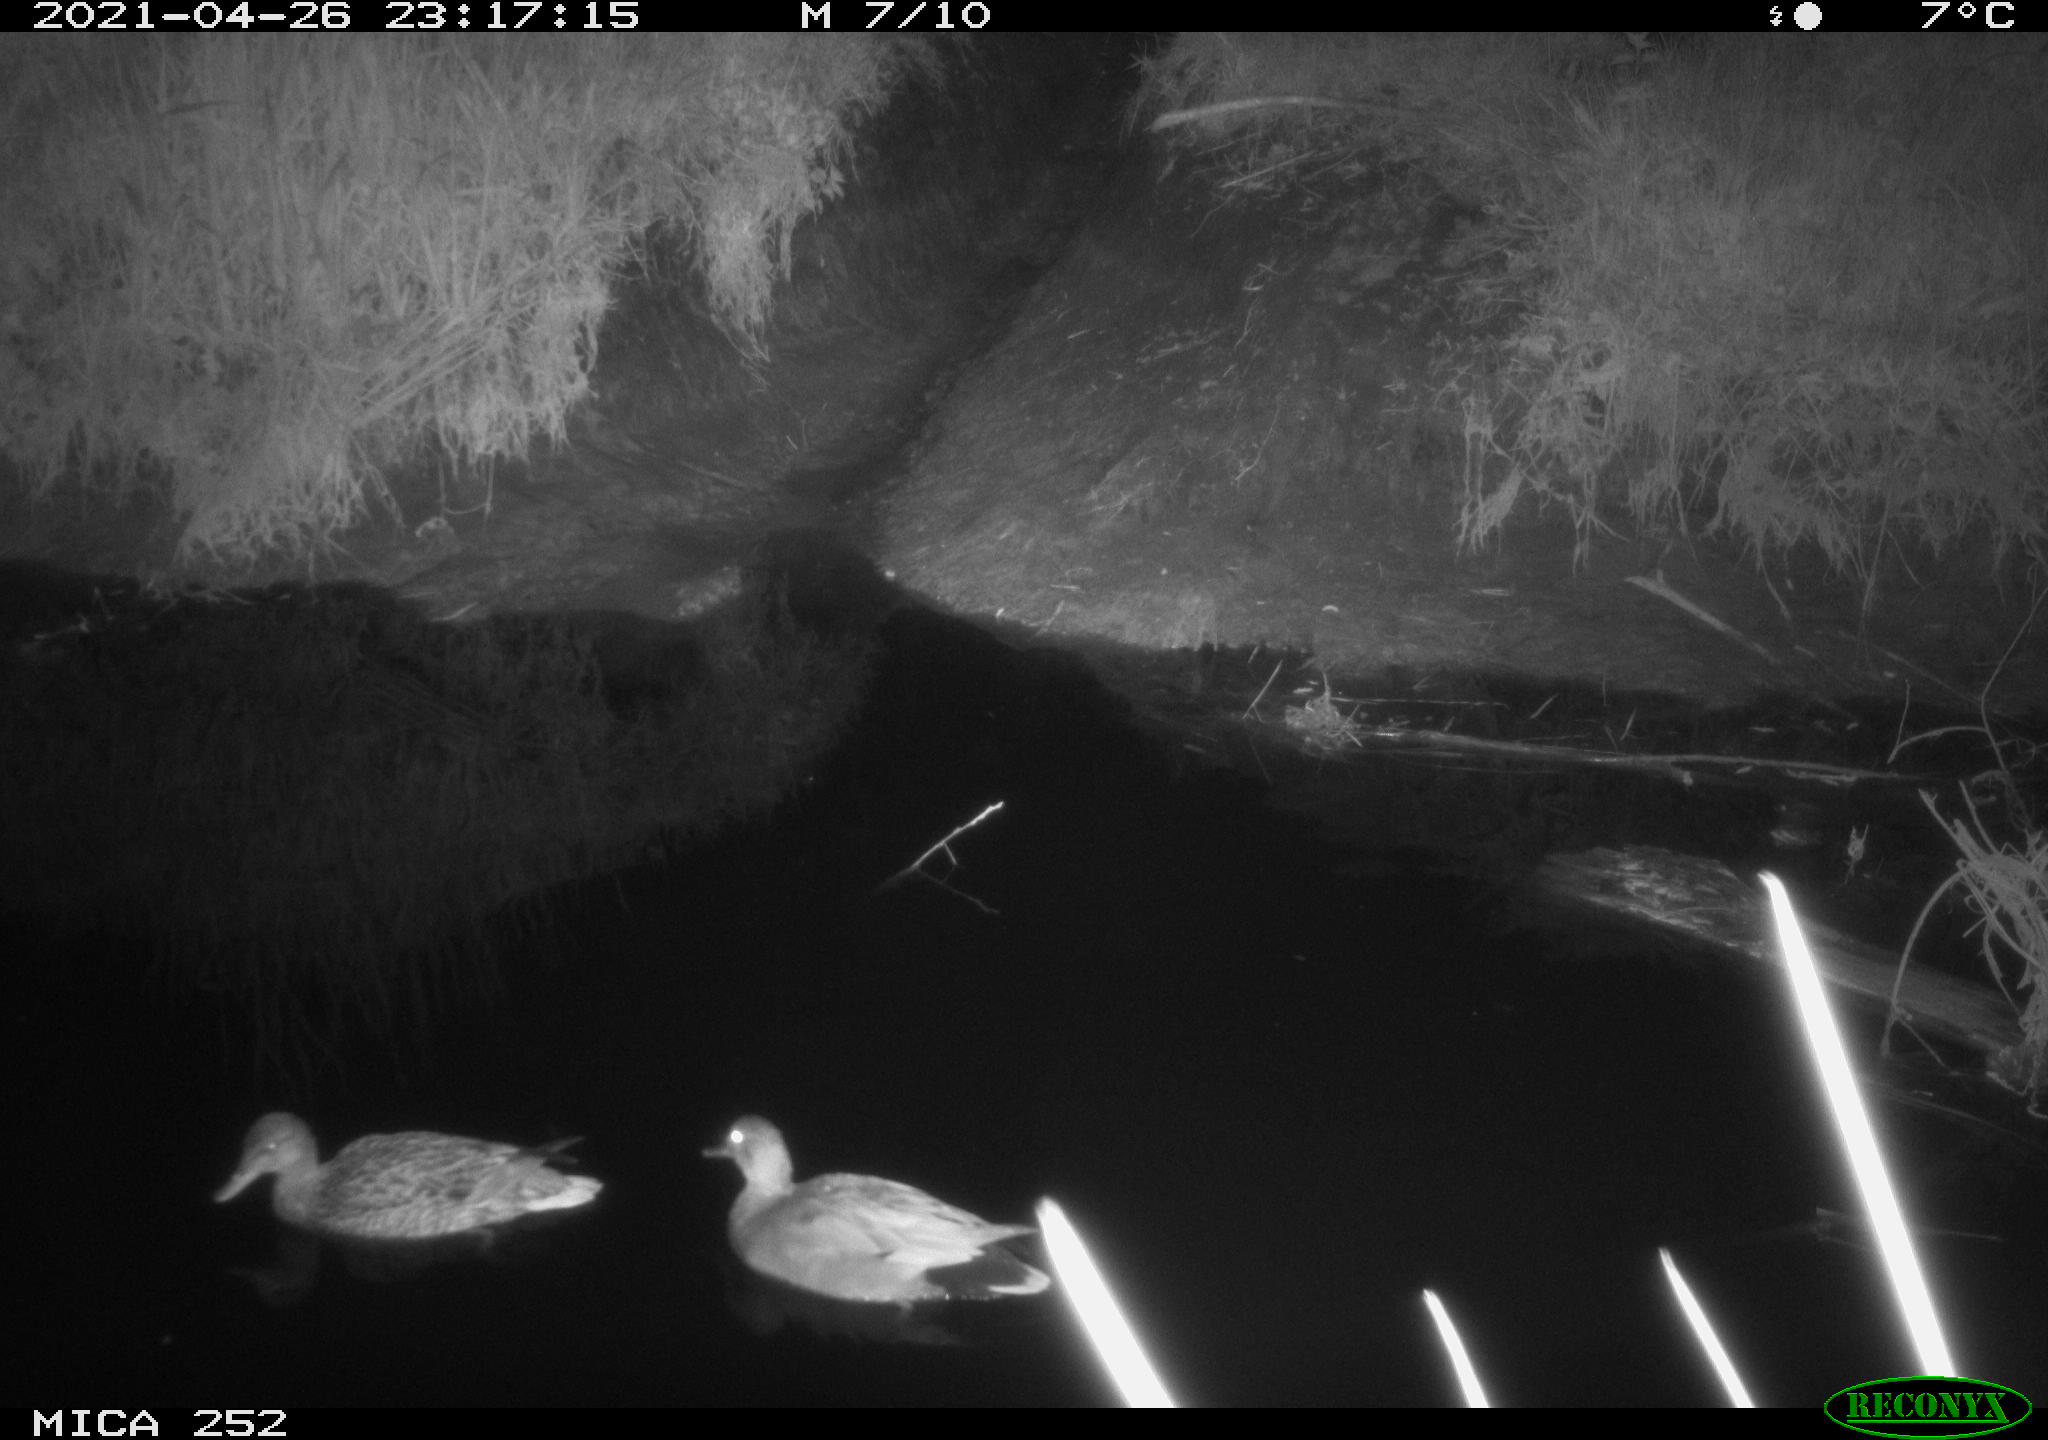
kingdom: Animalia
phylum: Chordata
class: Aves
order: Anseriformes
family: Anatidae
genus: Anas
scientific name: Anas platyrhynchos
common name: Mallard
